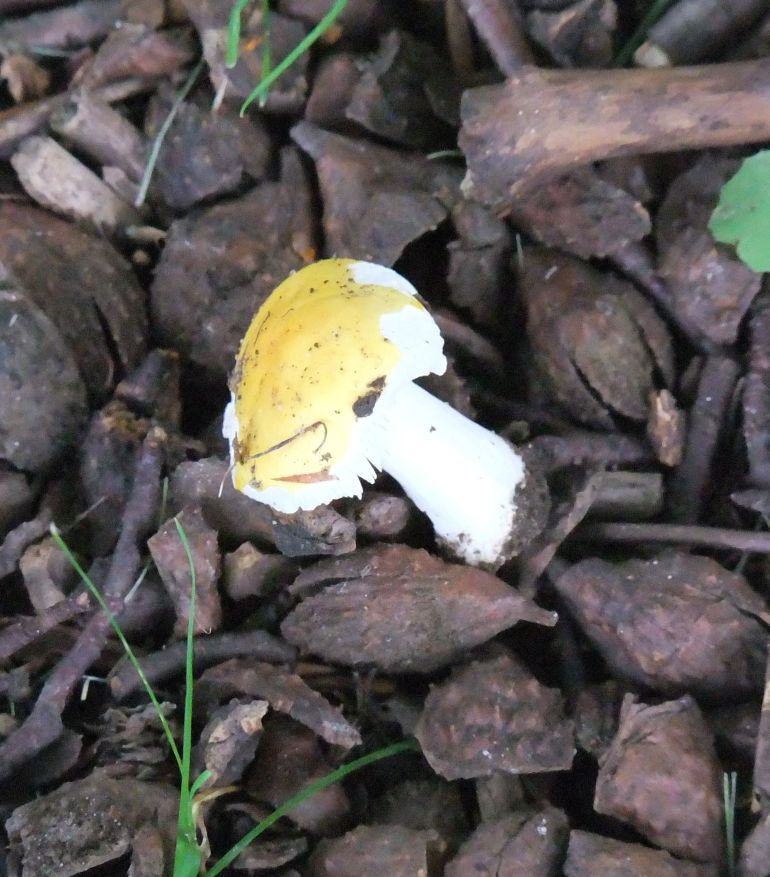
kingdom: Fungi
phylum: Basidiomycota
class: Agaricomycetes
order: Russulales
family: Russulaceae
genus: Russula
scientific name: Russula solaris
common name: sol-skørhat
